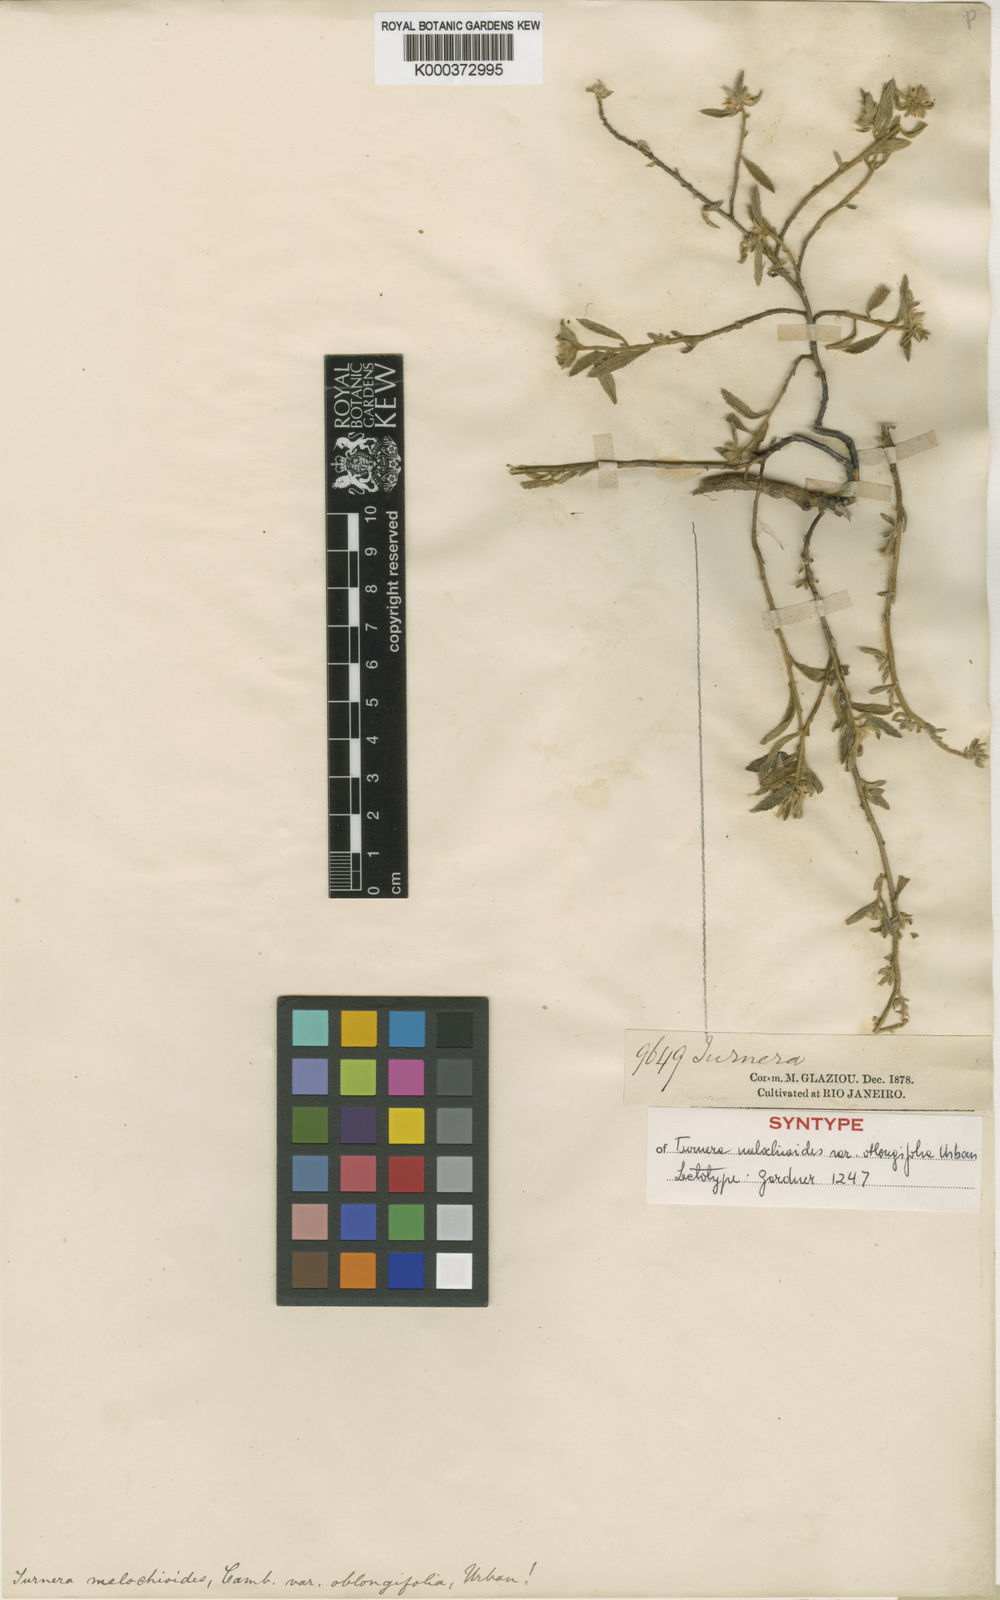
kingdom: Plantae
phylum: Tracheophyta
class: Magnoliopsida
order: Malpighiales
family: Turneraceae
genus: Turnera
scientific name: Turnera arenaria
